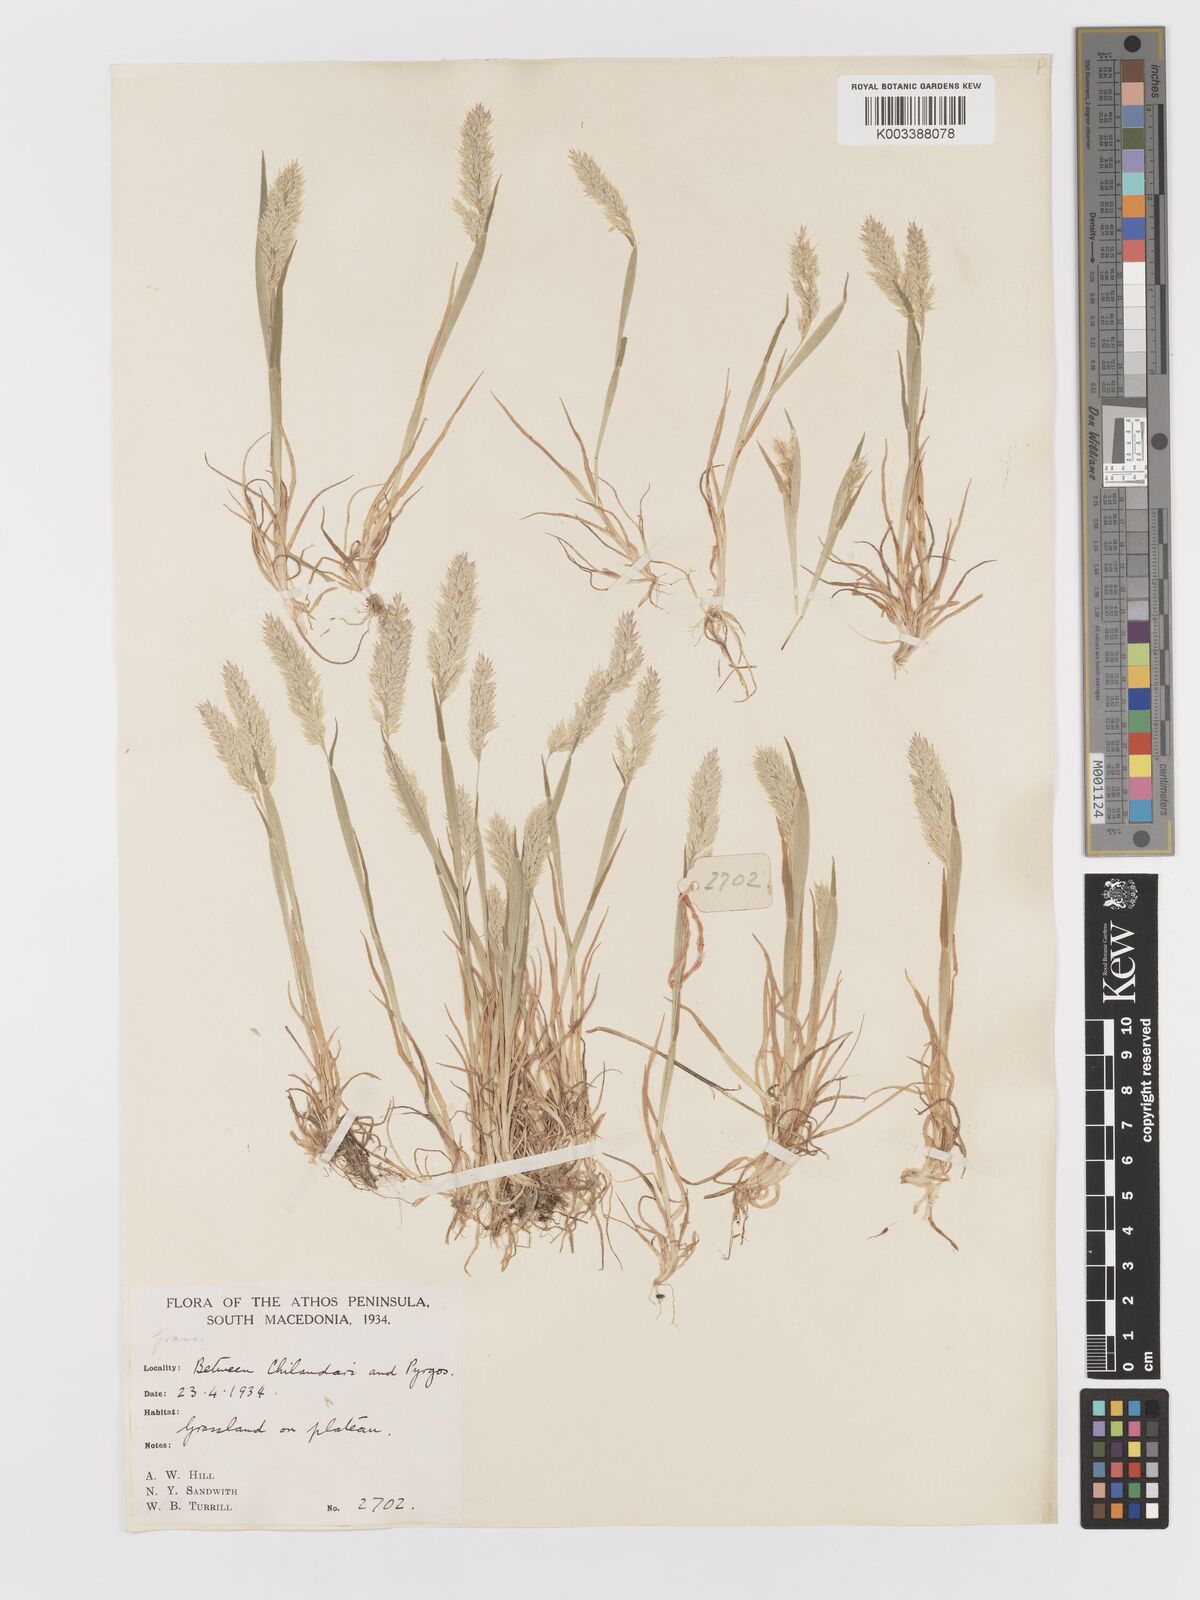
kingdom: Plantae
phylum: Tracheophyta
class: Liliopsida
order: Poales
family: Poaceae
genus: Holcus
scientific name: Holcus annuus
